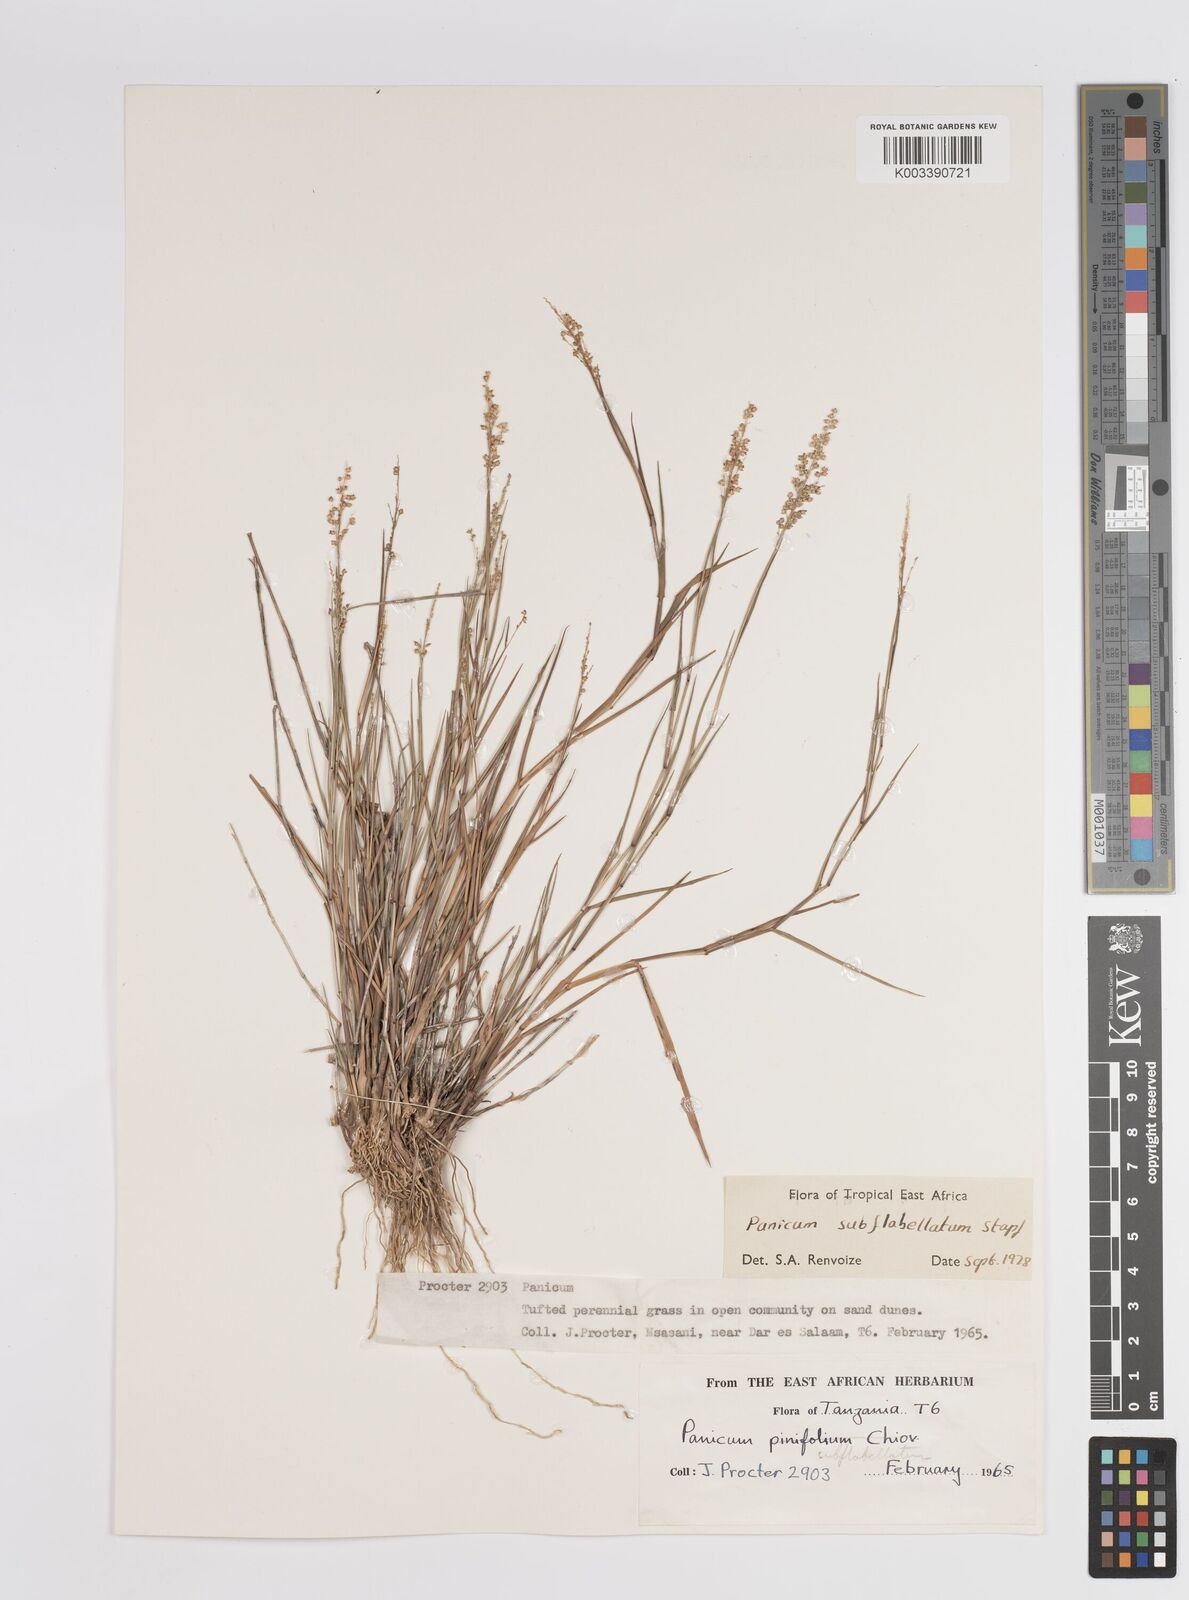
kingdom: Plantae
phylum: Tracheophyta
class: Liliopsida
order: Poales
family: Poaceae
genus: Panicum
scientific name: Panicum subflabellatum
